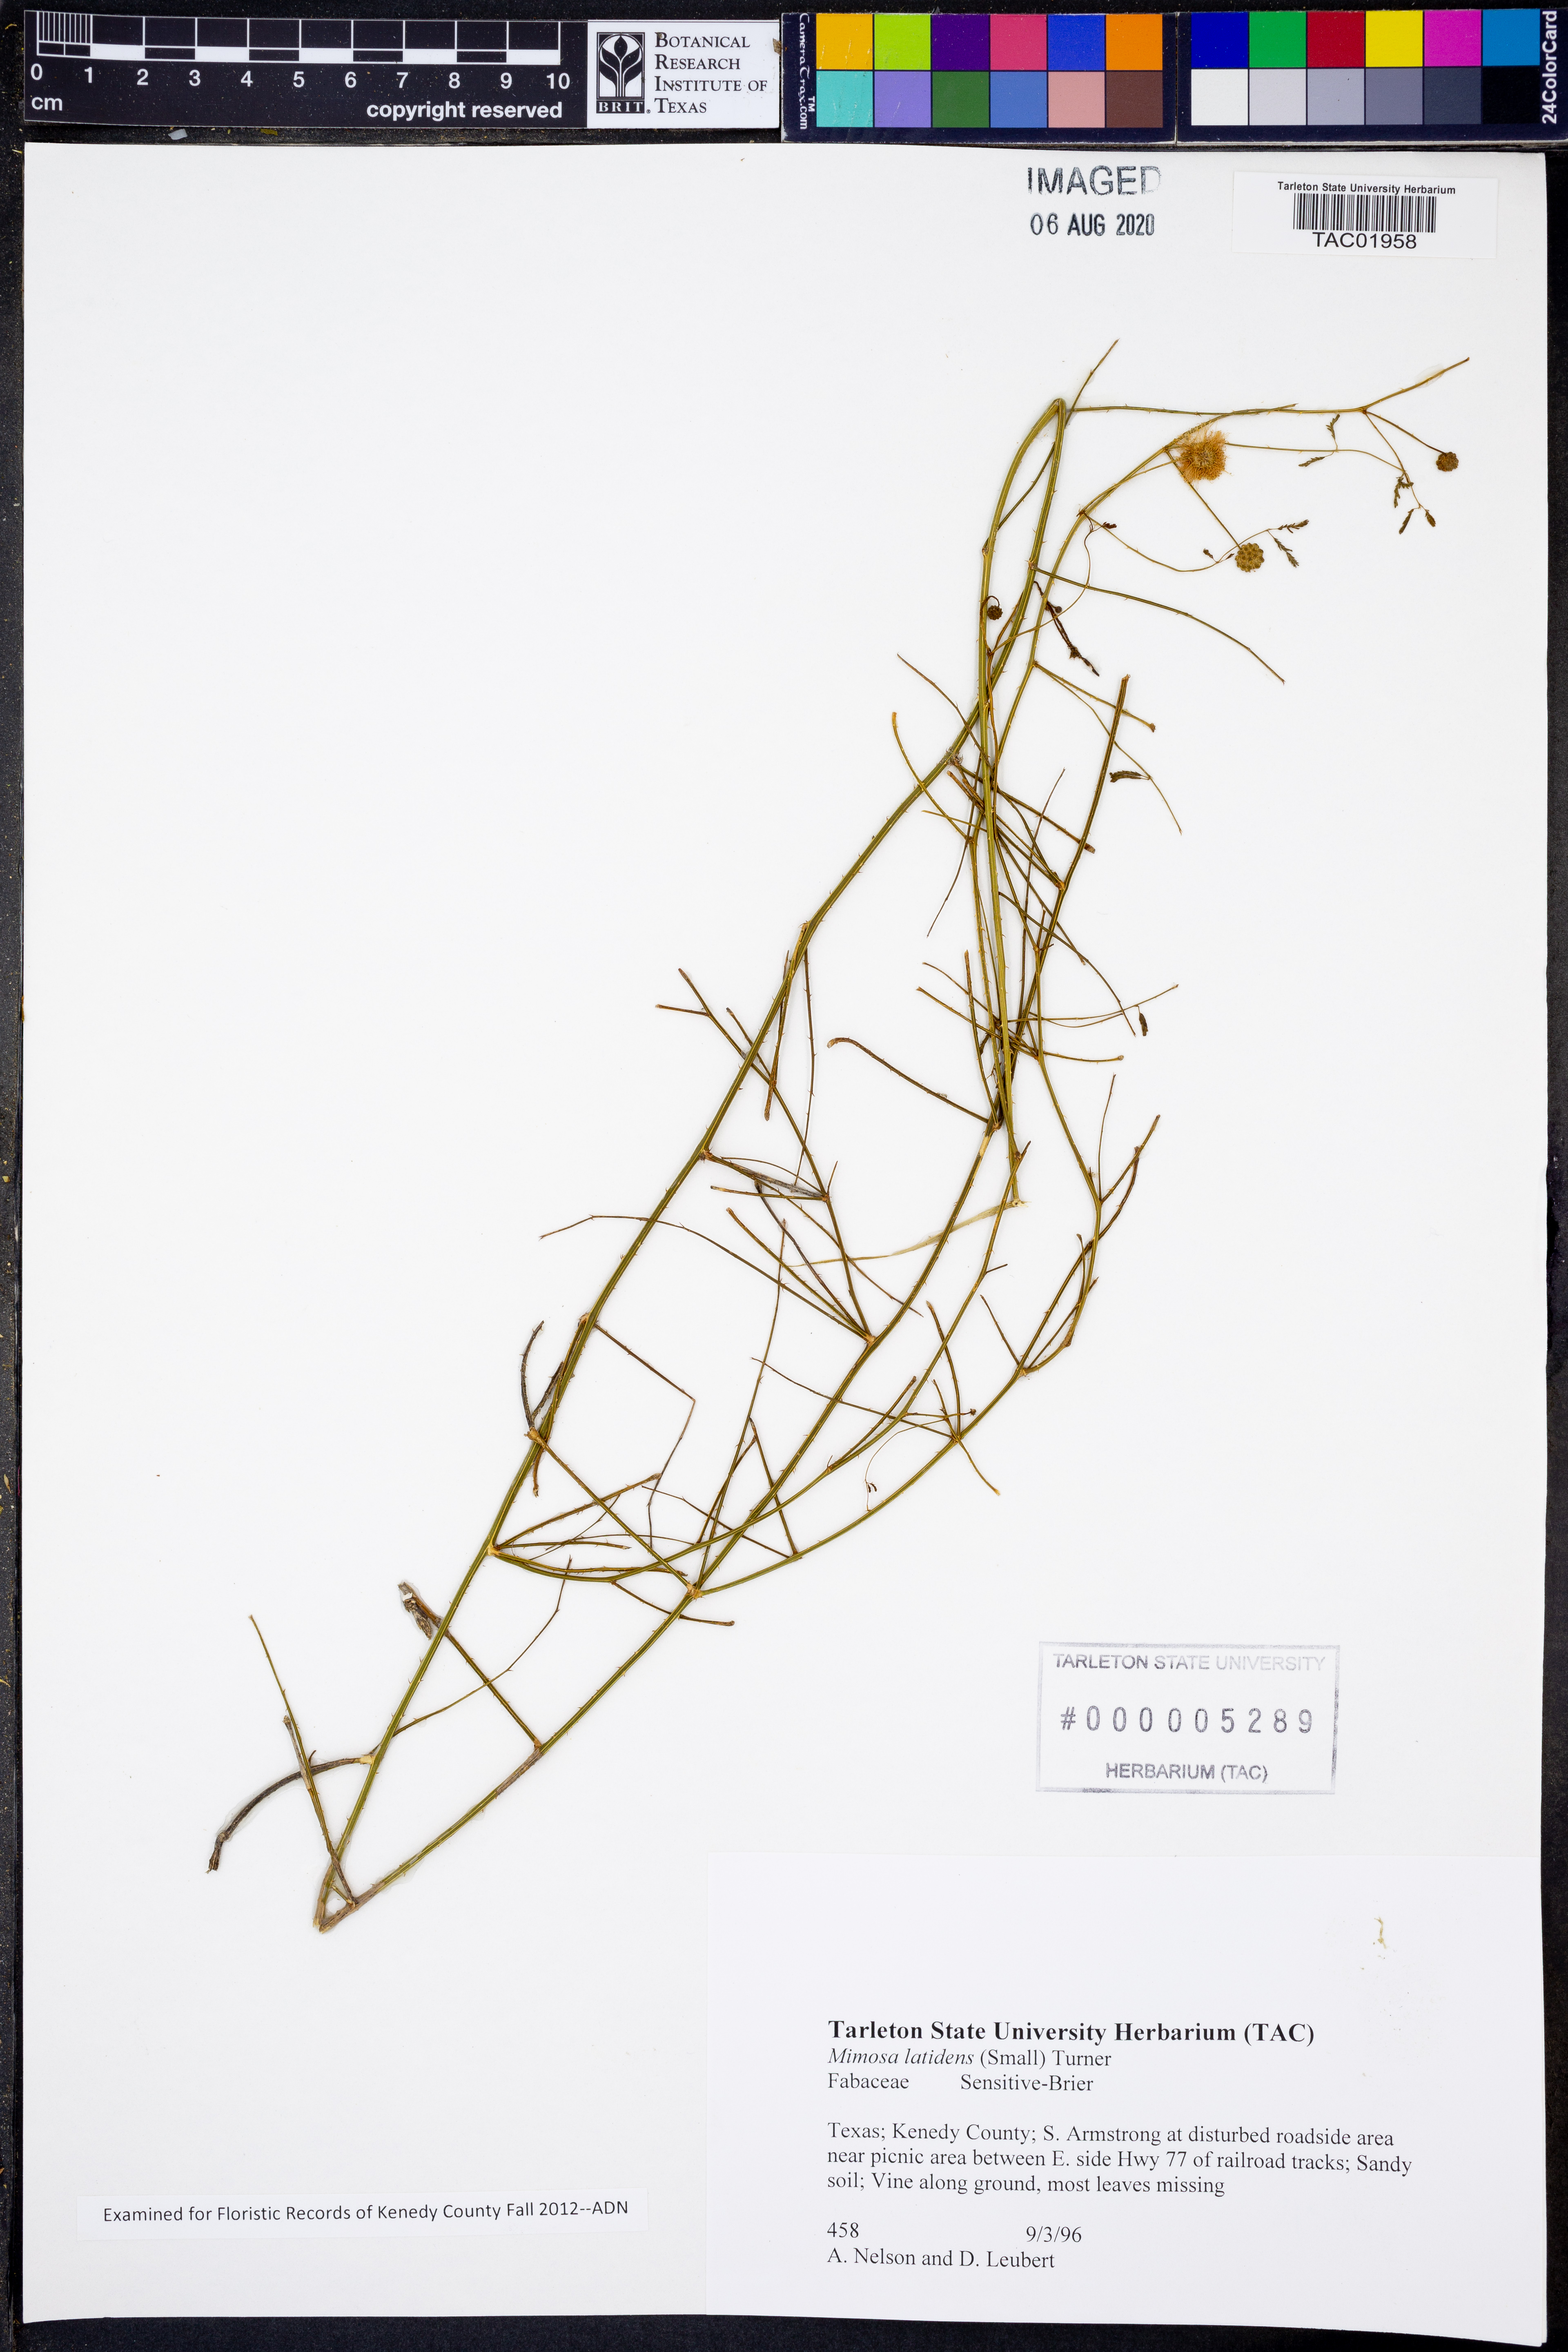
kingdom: Plantae
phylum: Tracheophyta
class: Magnoliopsida
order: Fabales
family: Fabaceae
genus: Mimosa
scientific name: Mimosa latidens
